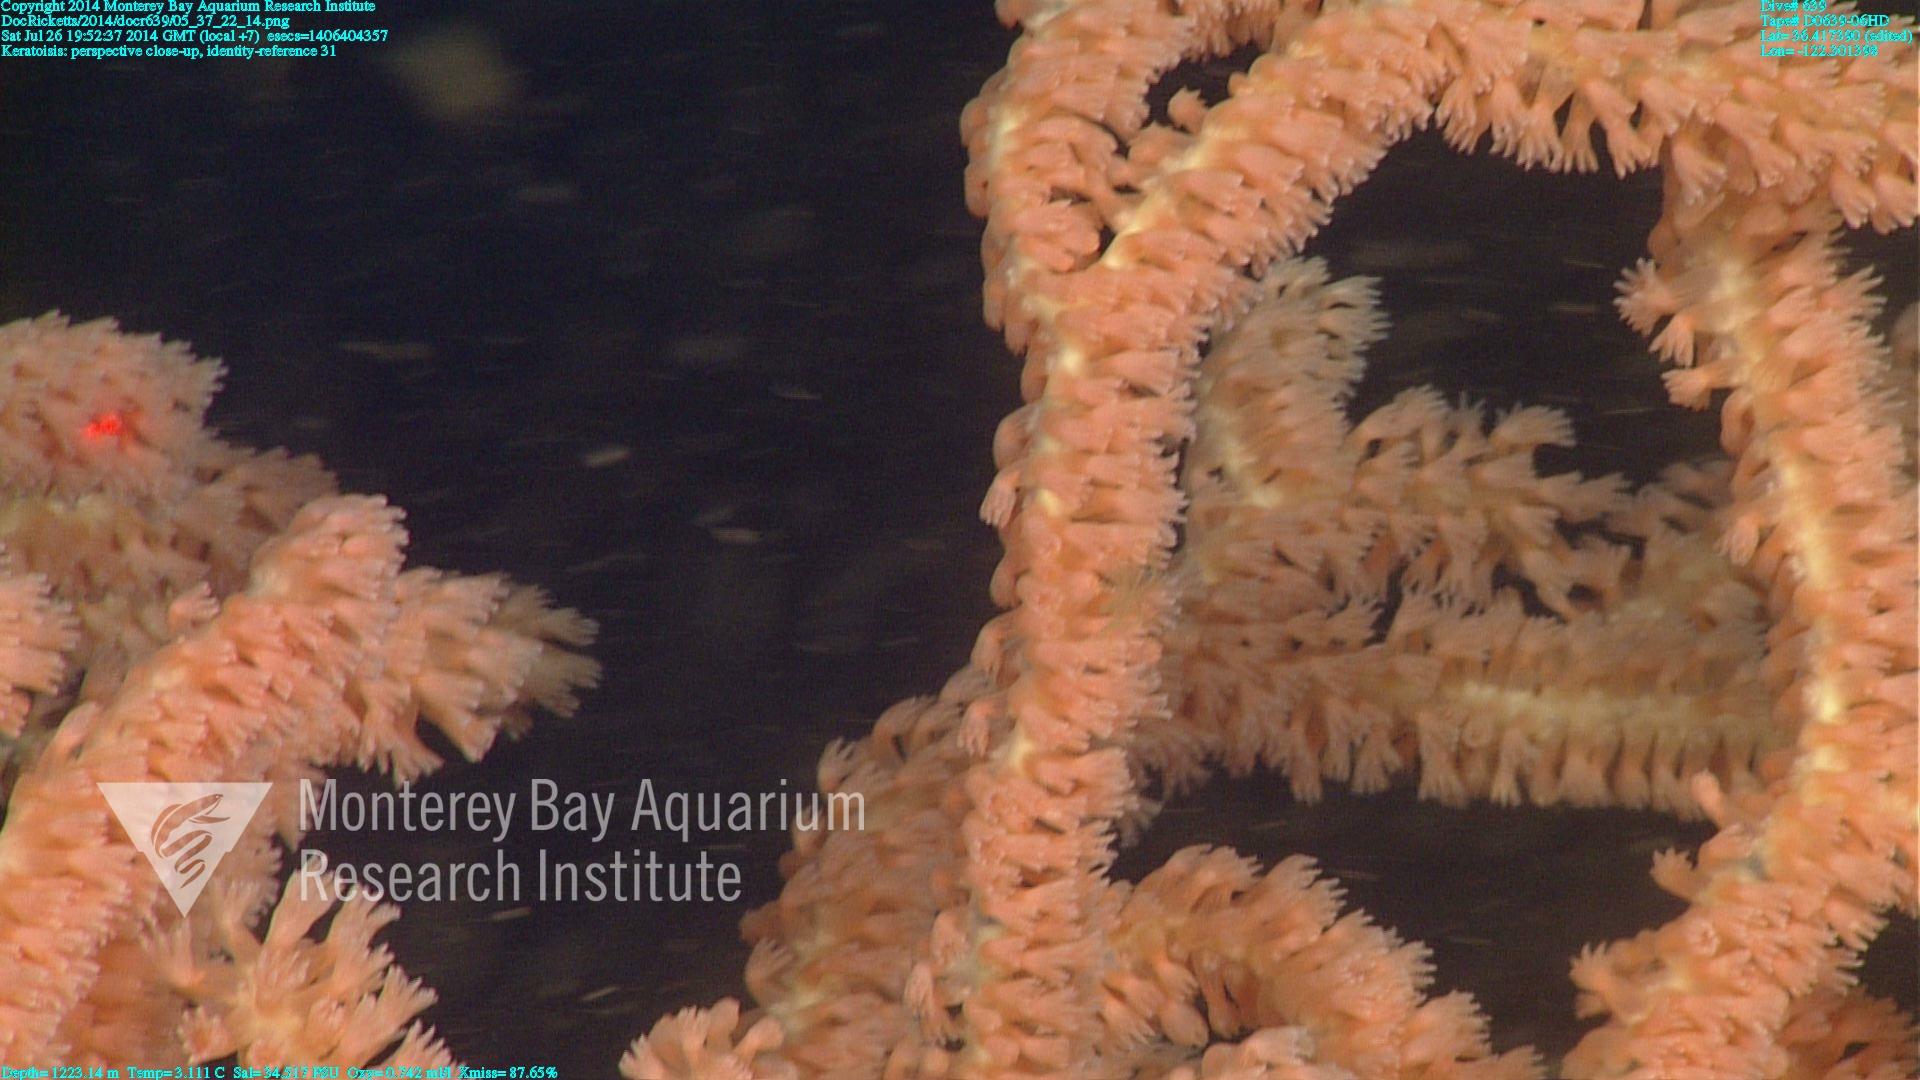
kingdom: Animalia
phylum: Cnidaria
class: Anthozoa
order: Scleralcyonacea
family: Keratoisididae
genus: Keratoisis
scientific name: Keratoisis
